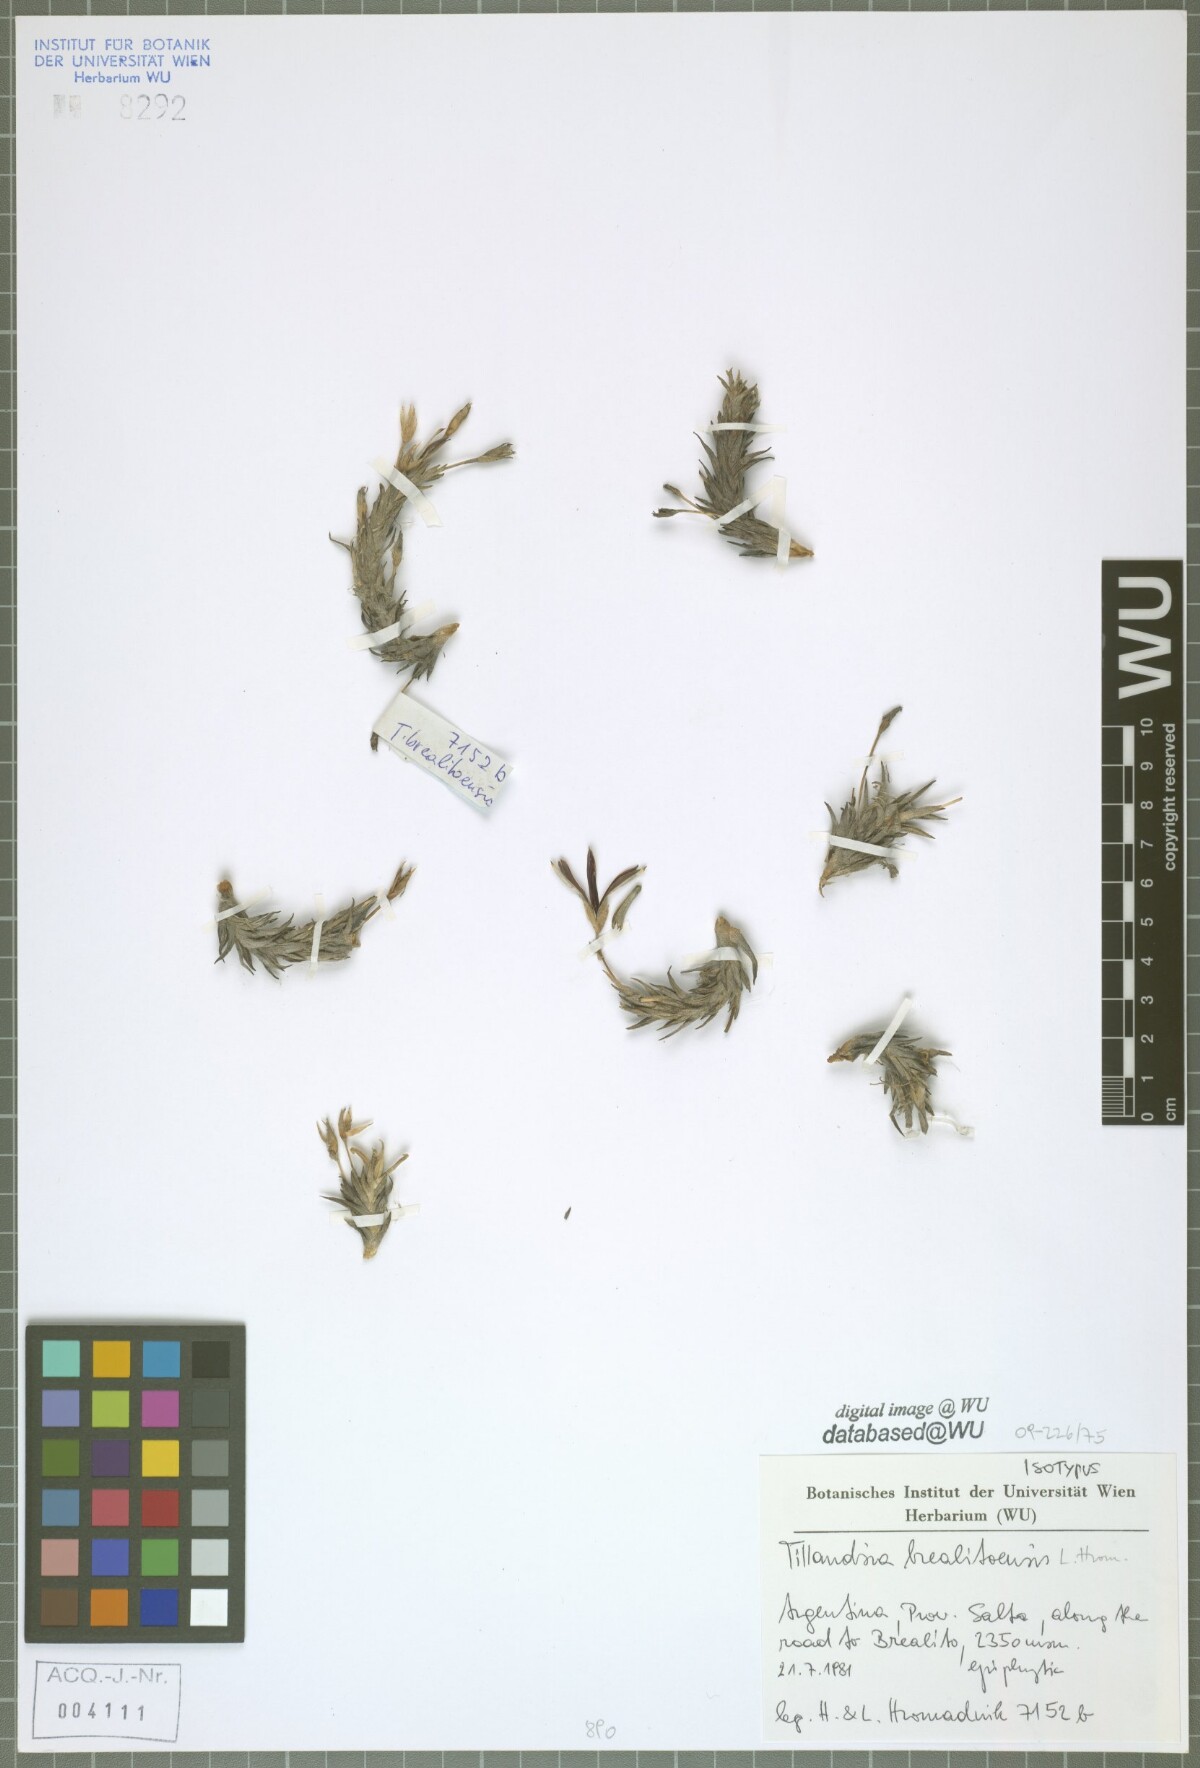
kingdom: Plantae
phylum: Tracheophyta
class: Liliopsida
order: Poales
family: Bromeliaceae
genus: Tillandsia
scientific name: Tillandsia brealitoensis
